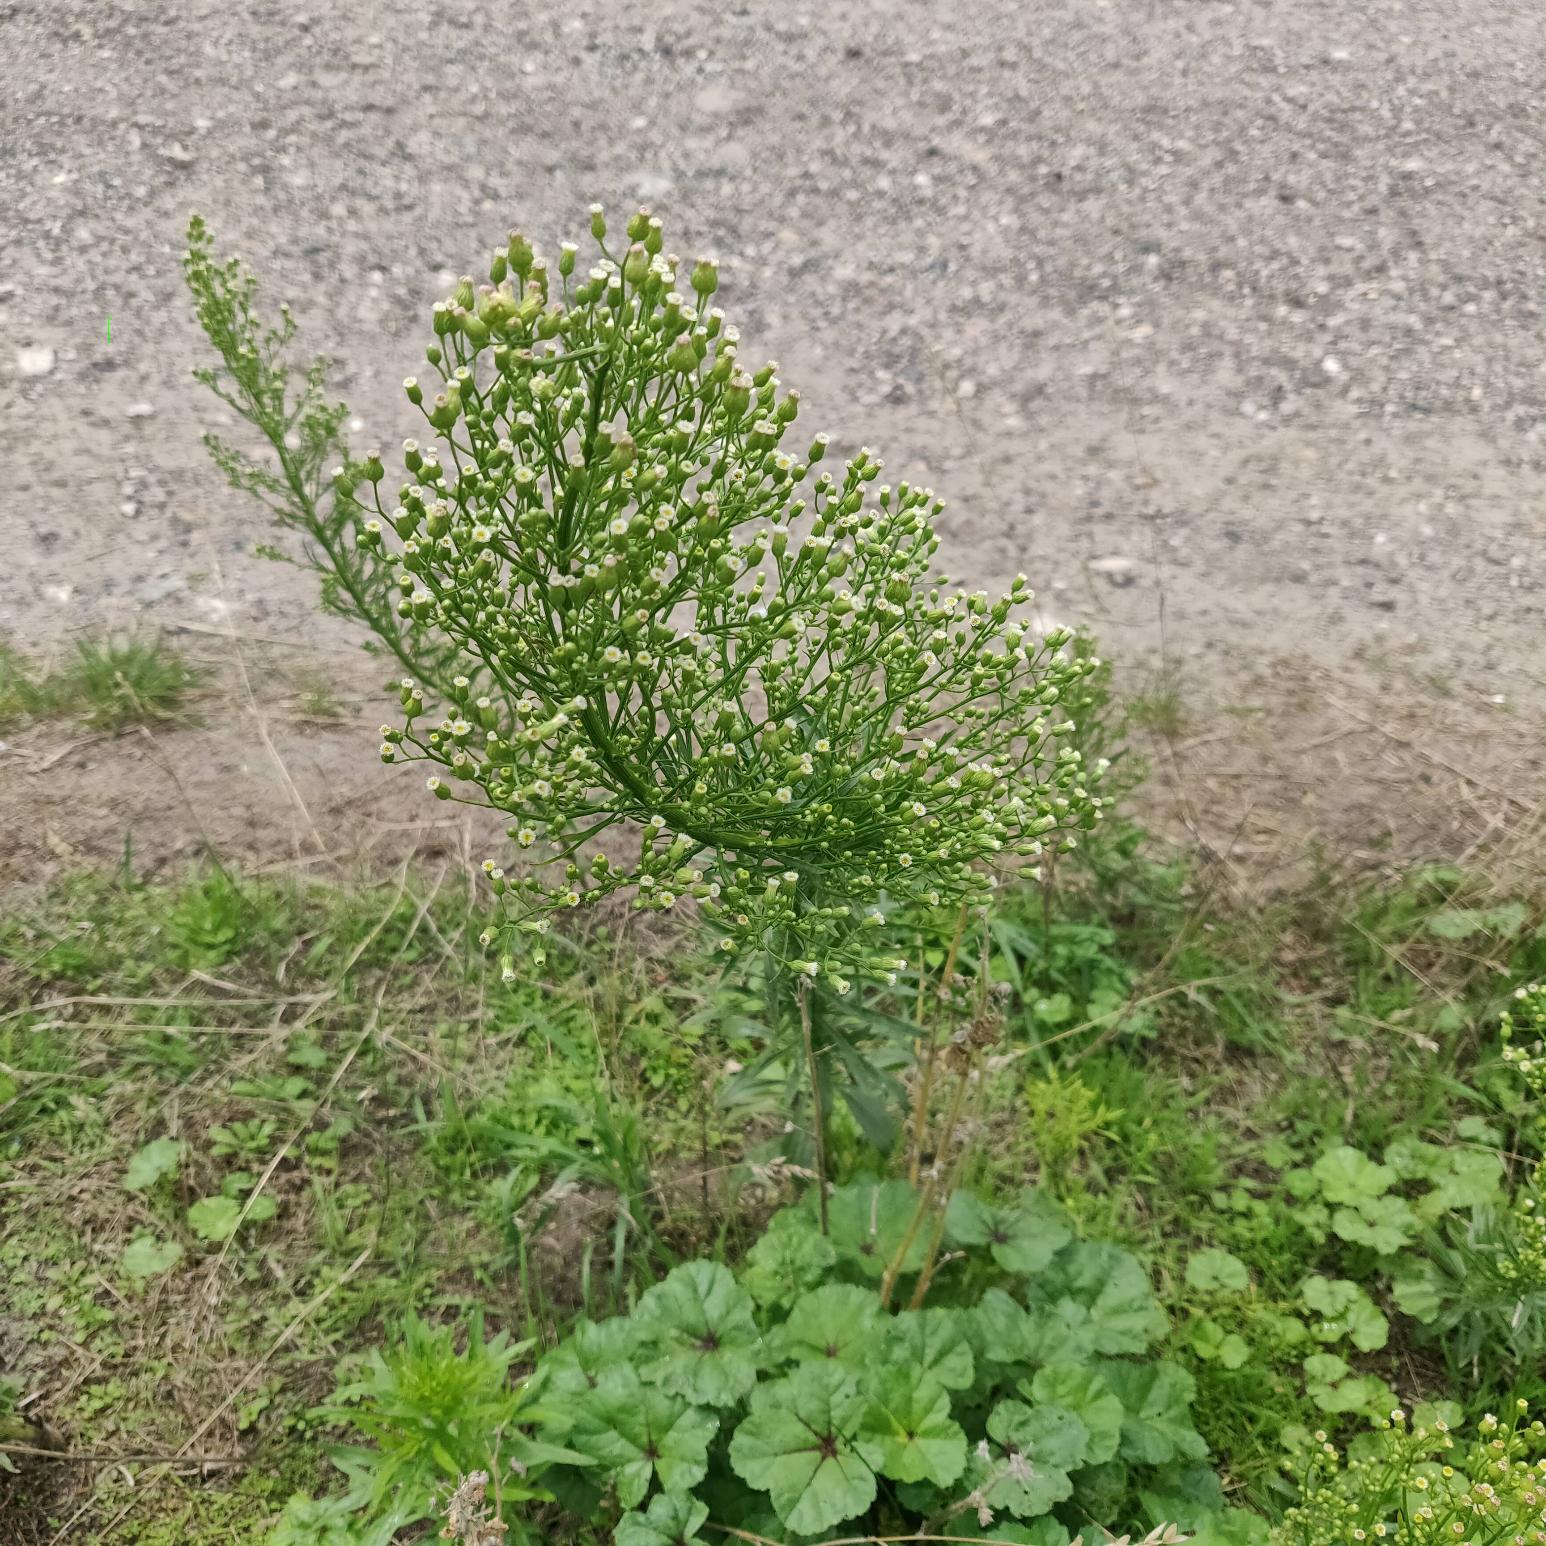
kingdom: Plantae
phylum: Tracheophyta
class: Magnoliopsida
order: Asterales
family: Asteraceae
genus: Erigeron
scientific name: Erigeron canadensis
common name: Kanadisk bakkestjerne
